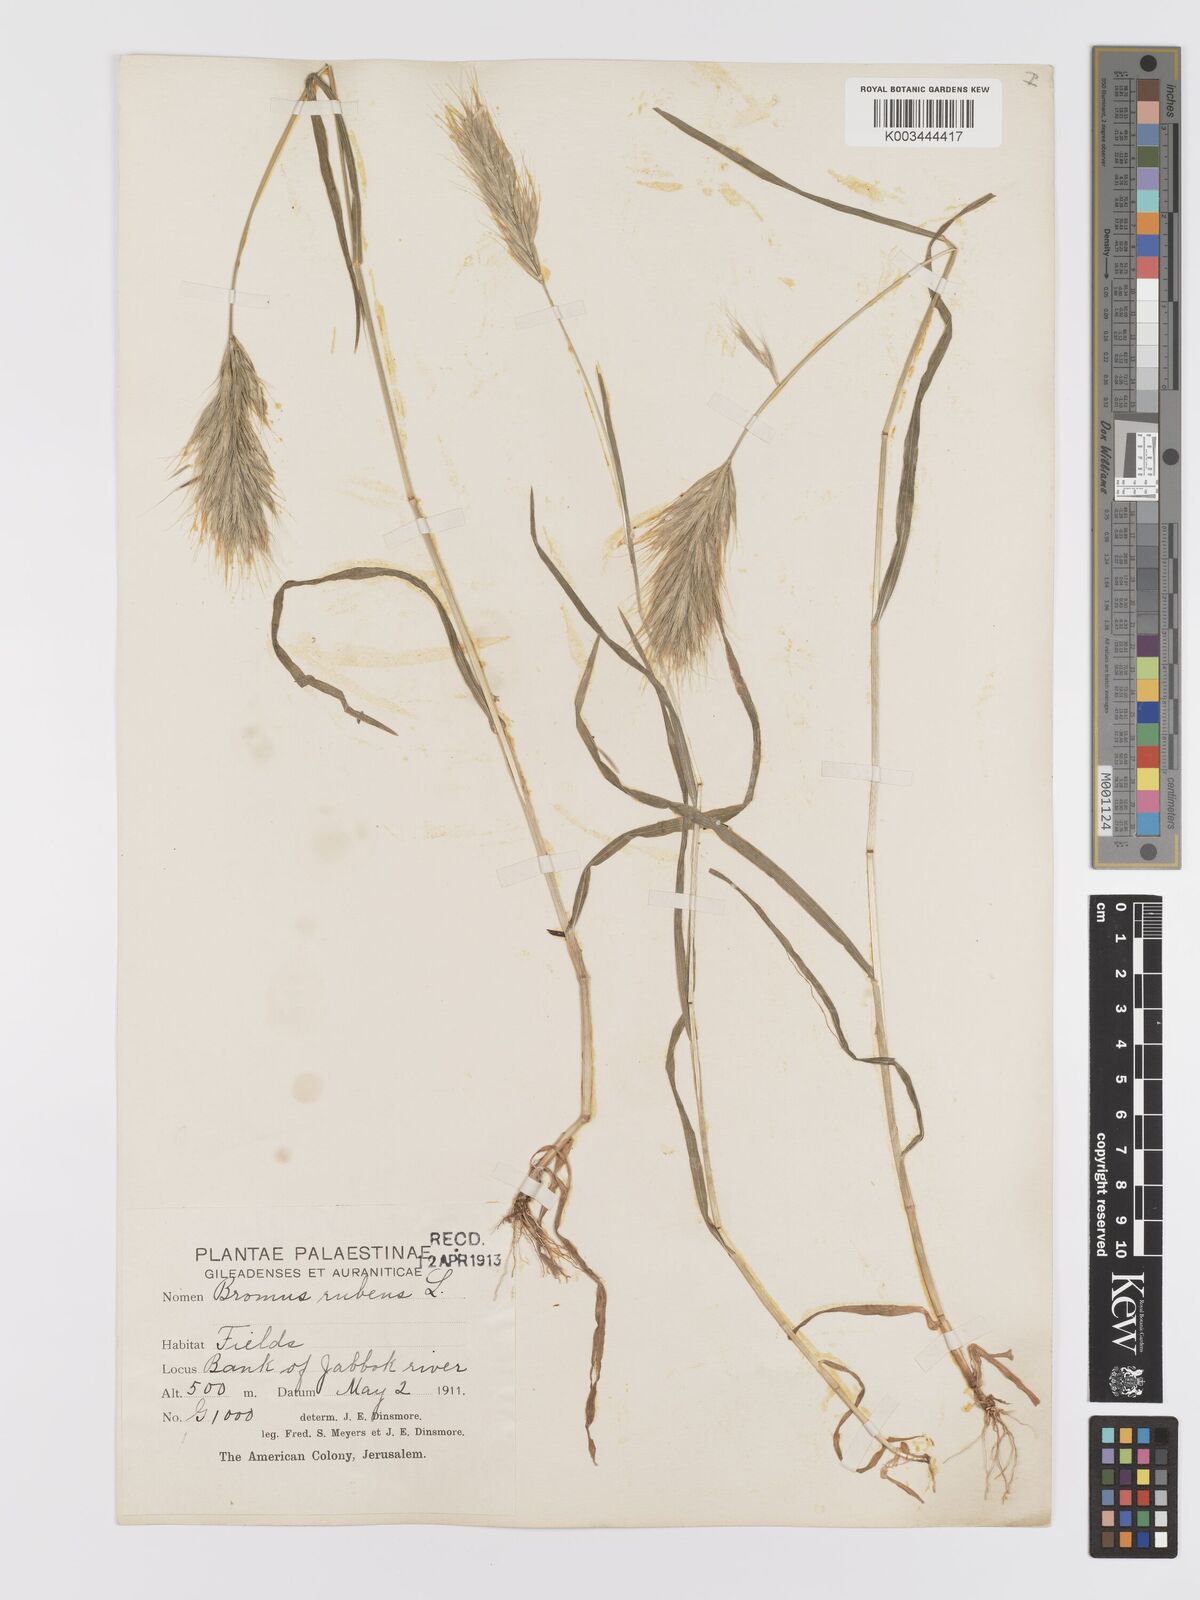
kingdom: Plantae
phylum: Tracheophyta
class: Liliopsida
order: Poales
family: Poaceae
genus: Bromus
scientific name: Bromus rubens
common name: Red brome
